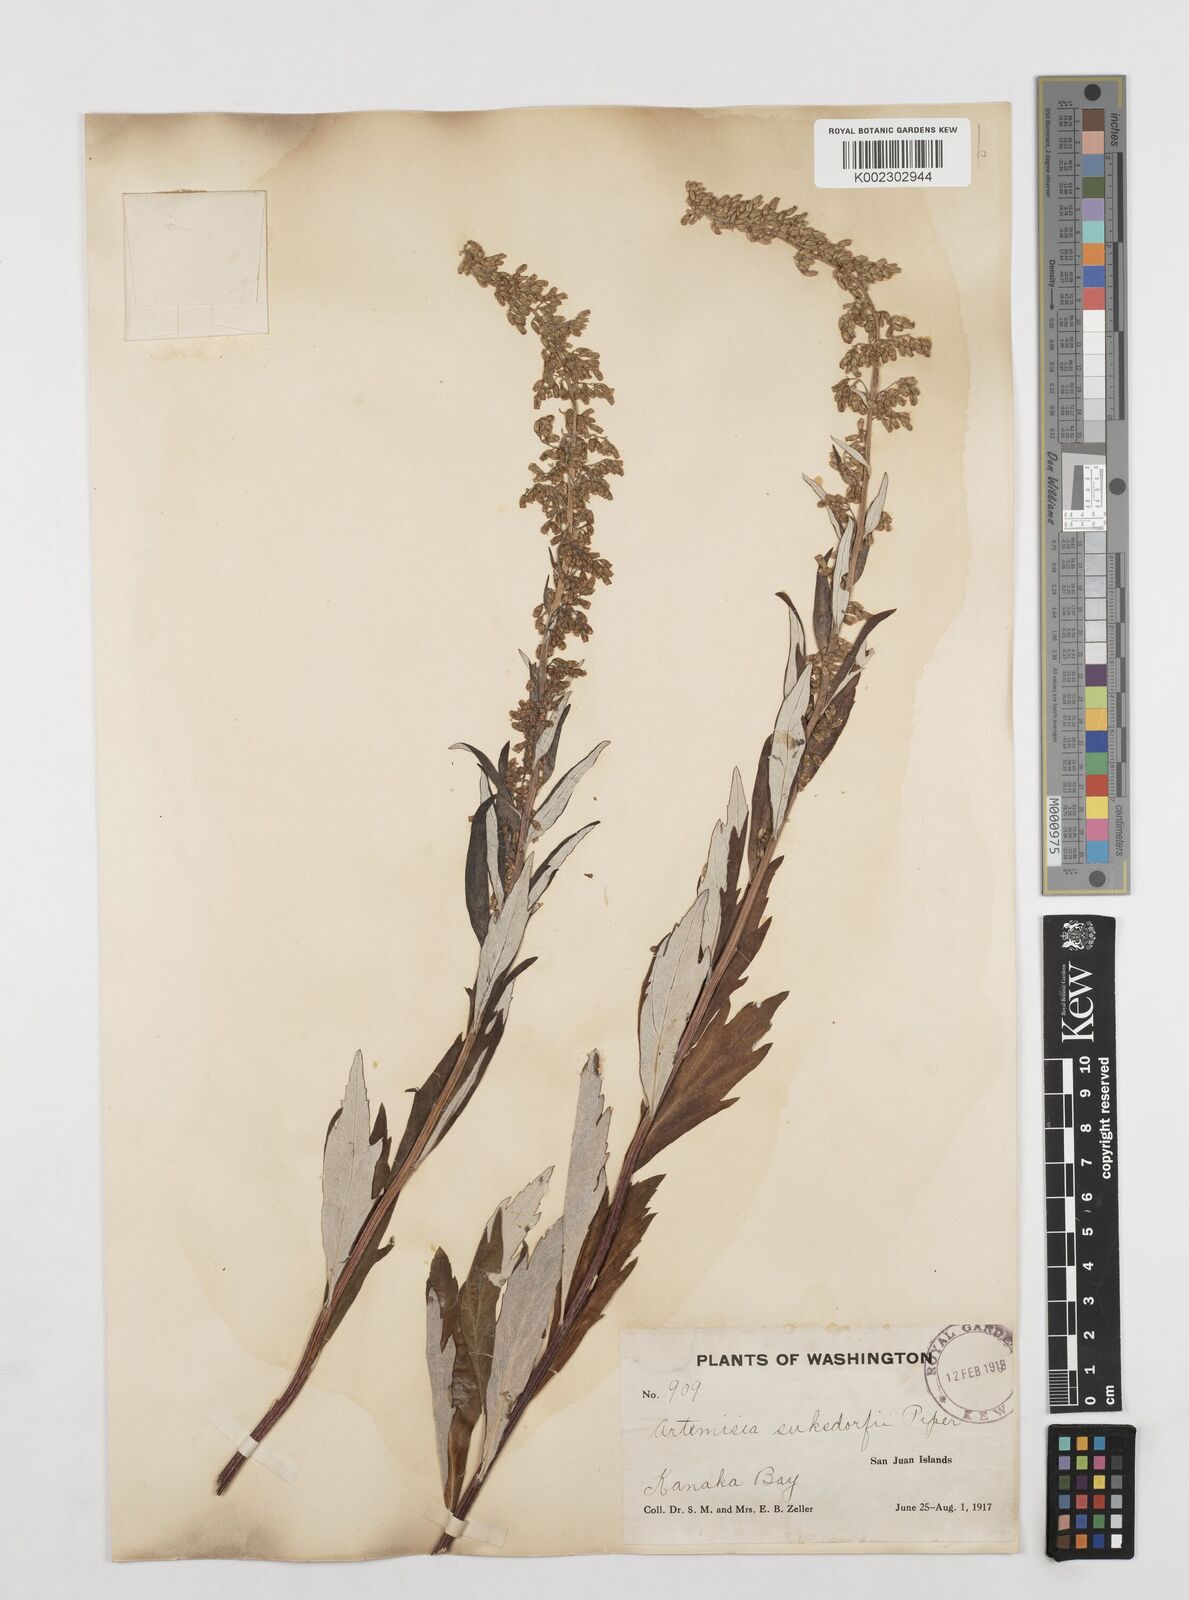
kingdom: Plantae
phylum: Tracheophyta
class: Magnoliopsida
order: Asterales
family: Asteraceae
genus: Artemisia
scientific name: Artemisia douglasiana
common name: Northwest mugwort
